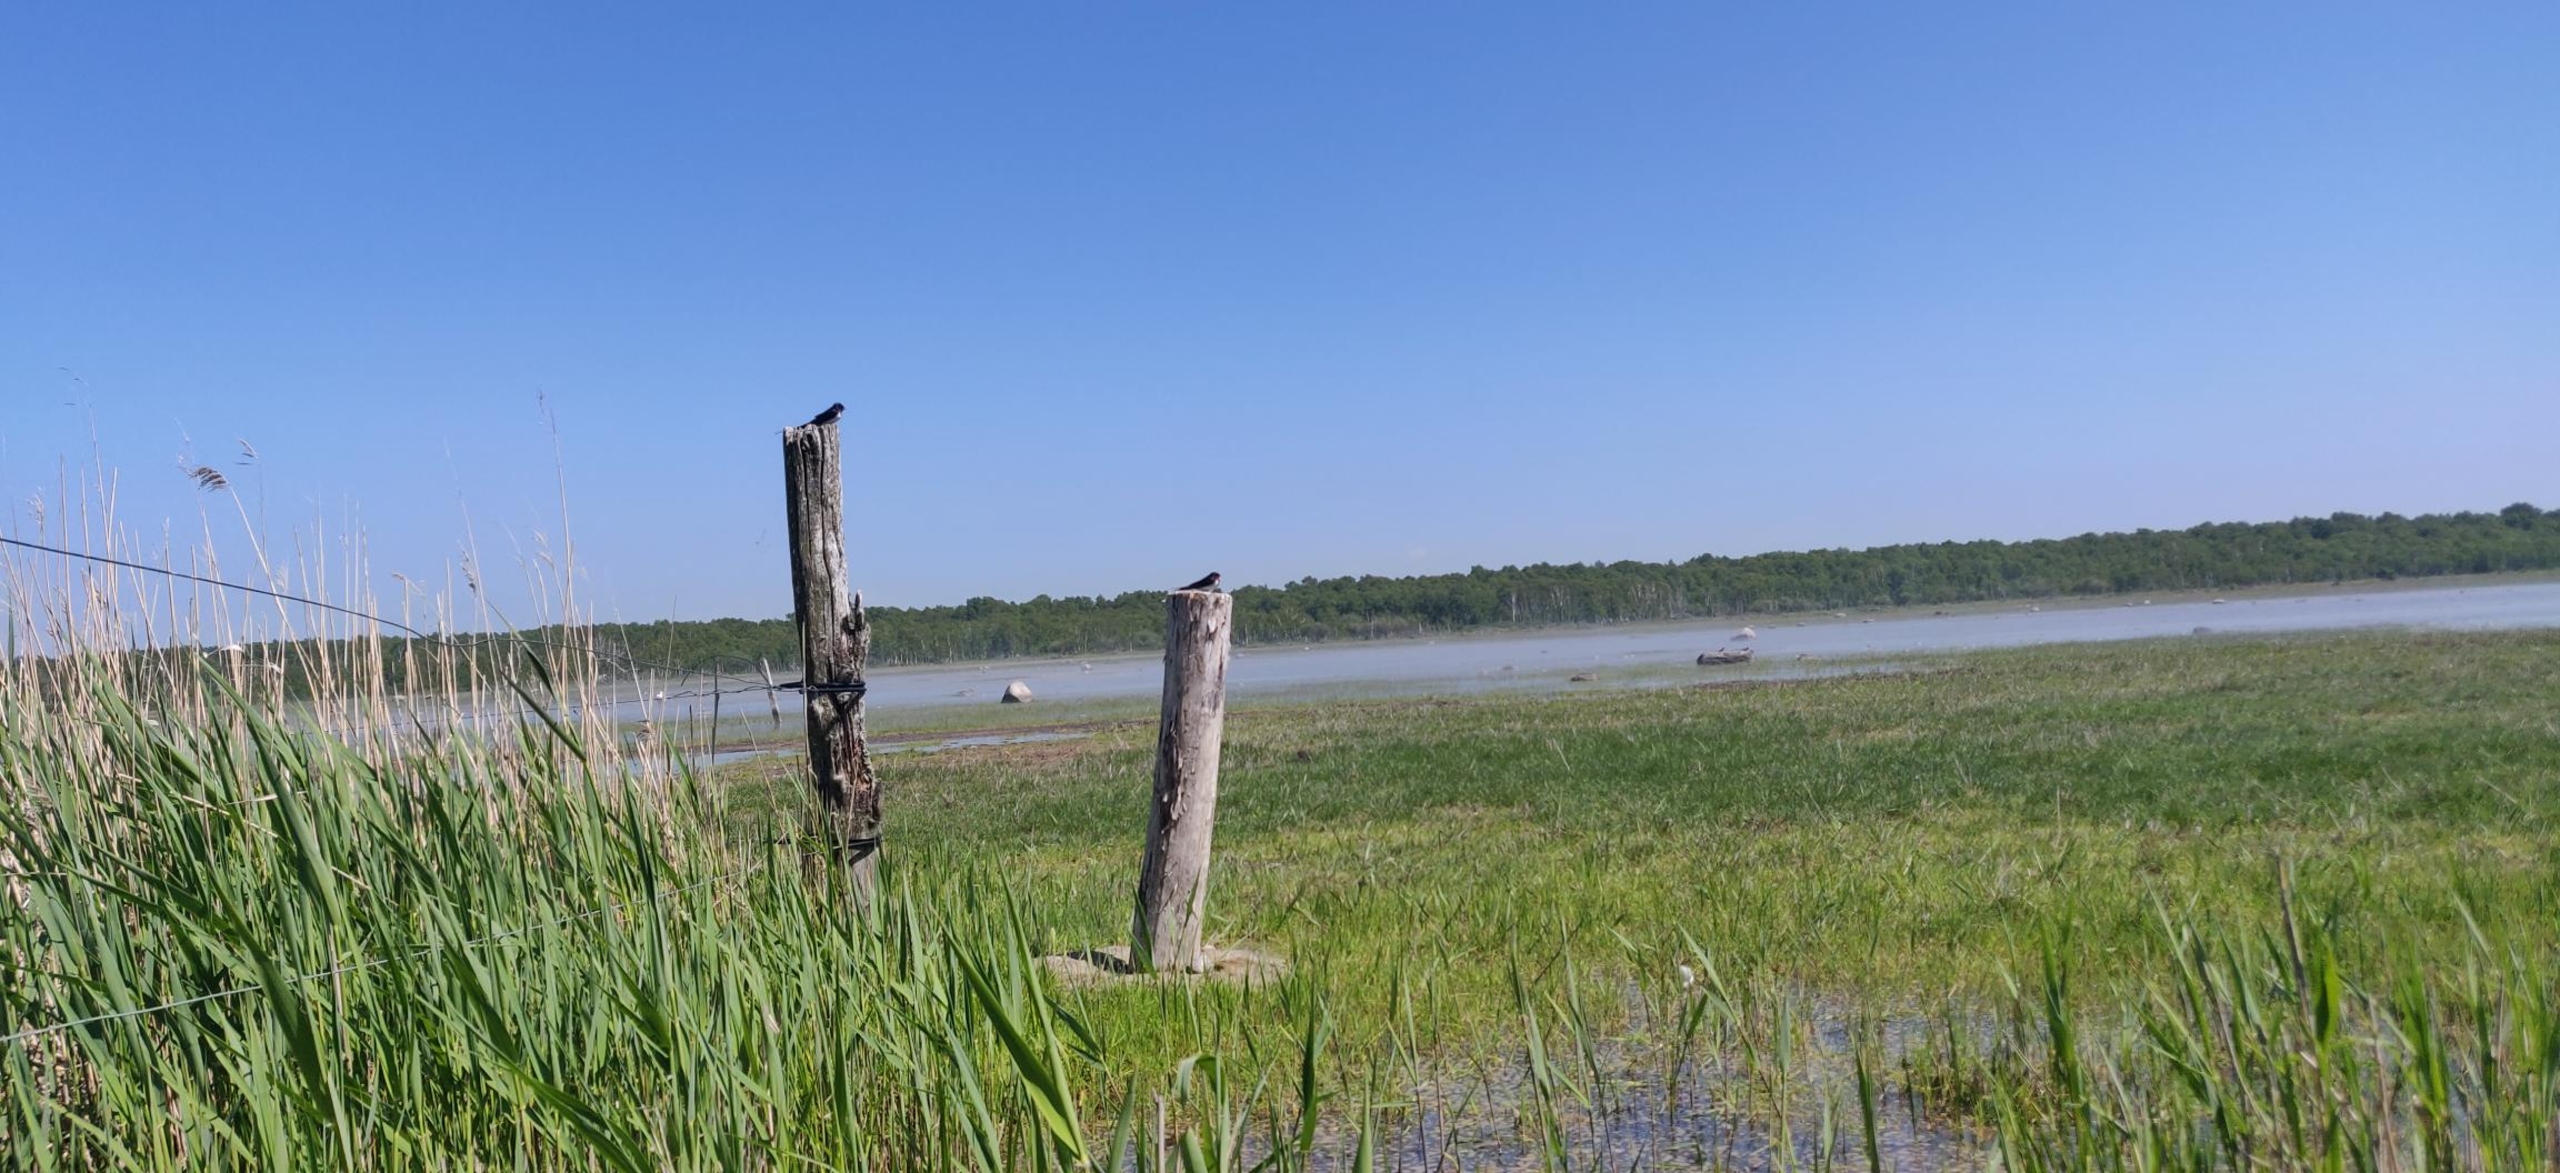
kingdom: Animalia
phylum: Chordata
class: Aves
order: Passeriformes
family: Hirundinidae
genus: Hirundo
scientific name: Hirundo rustica
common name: Landsvale
